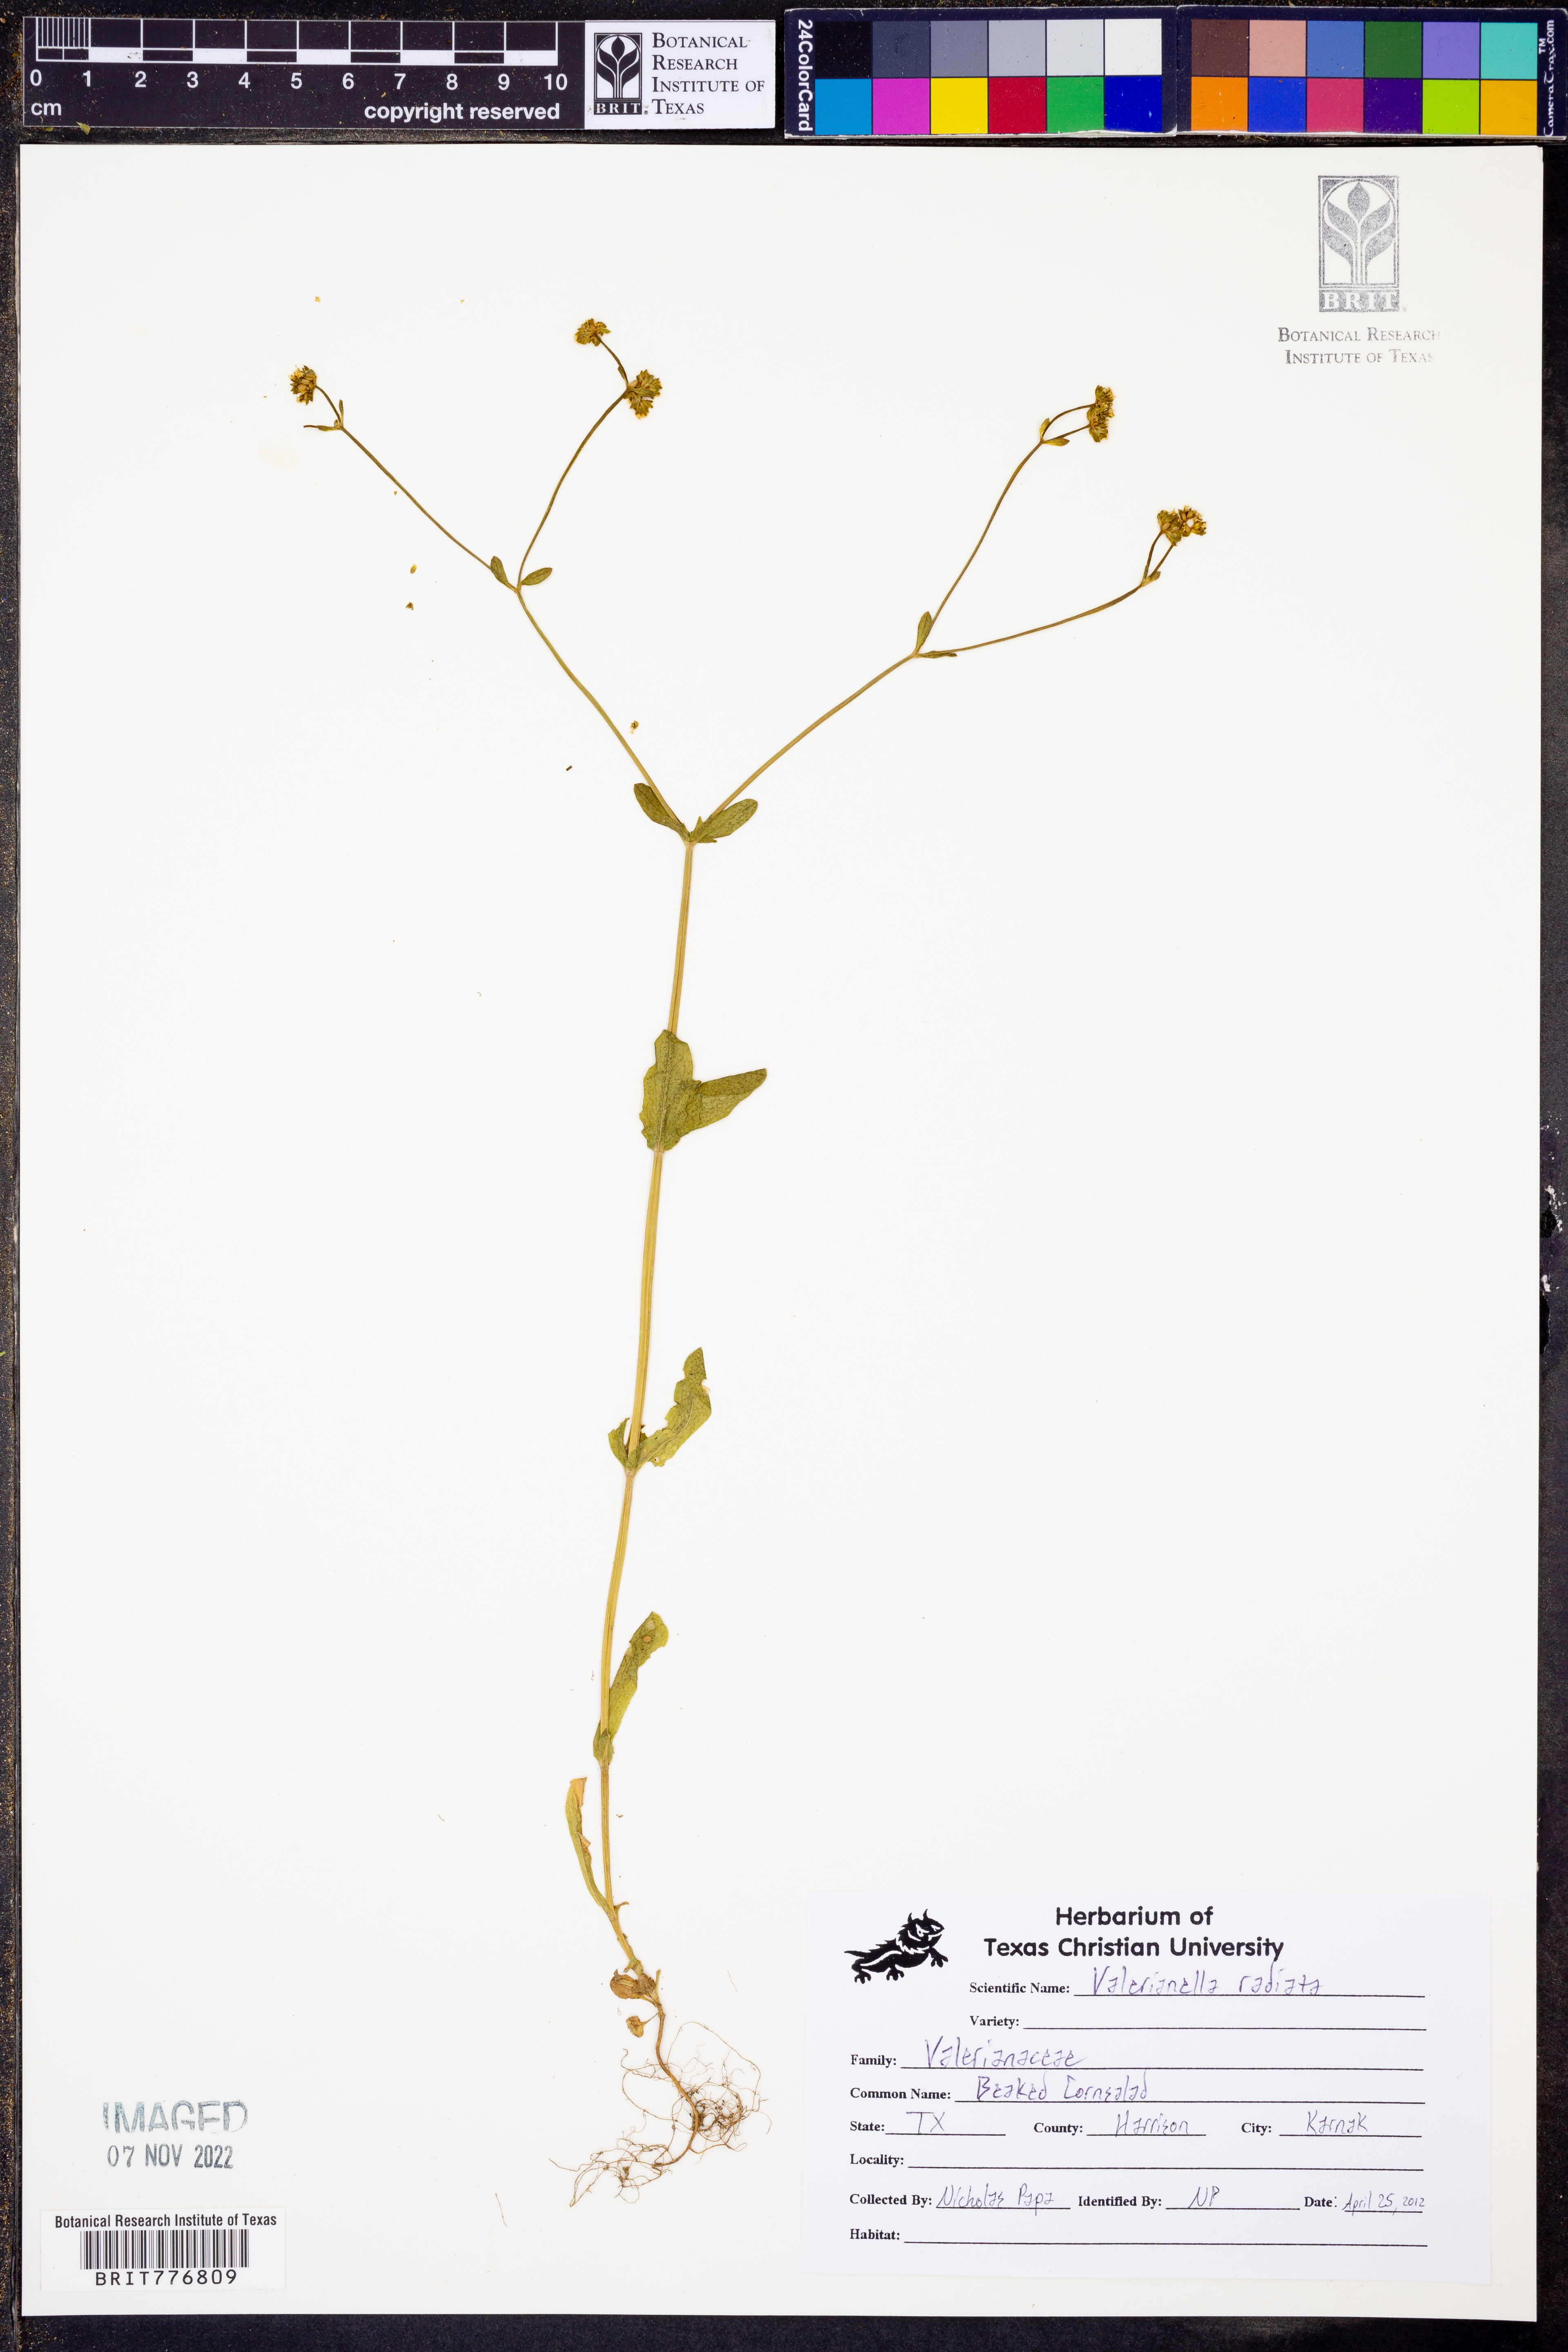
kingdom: Plantae
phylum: Tracheophyta
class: Magnoliopsida
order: Dipsacales
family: Caprifoliaceae
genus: Valerianella
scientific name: Valerianella radiata
